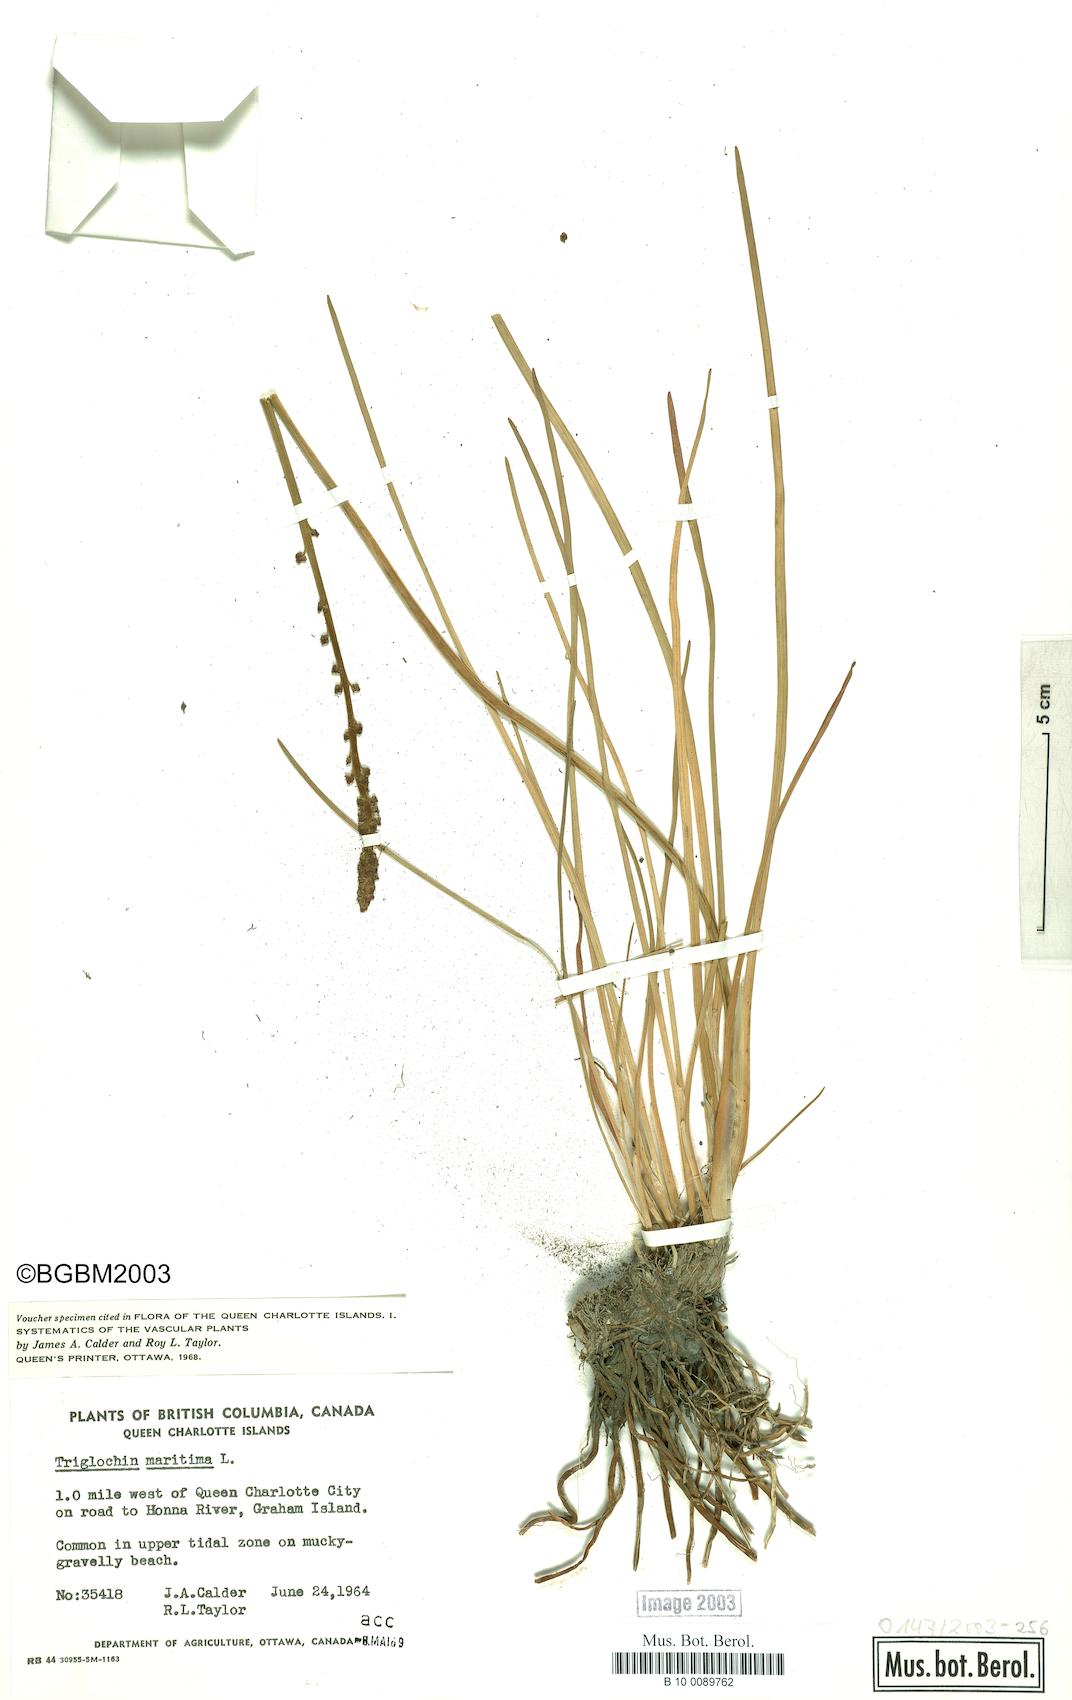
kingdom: Plantae
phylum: Tracheophyta
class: Liliopsida
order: Alismatales
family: Juncaginaceae
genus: Triglochin
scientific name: Triglochin maritima
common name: Sea arrowgrass
